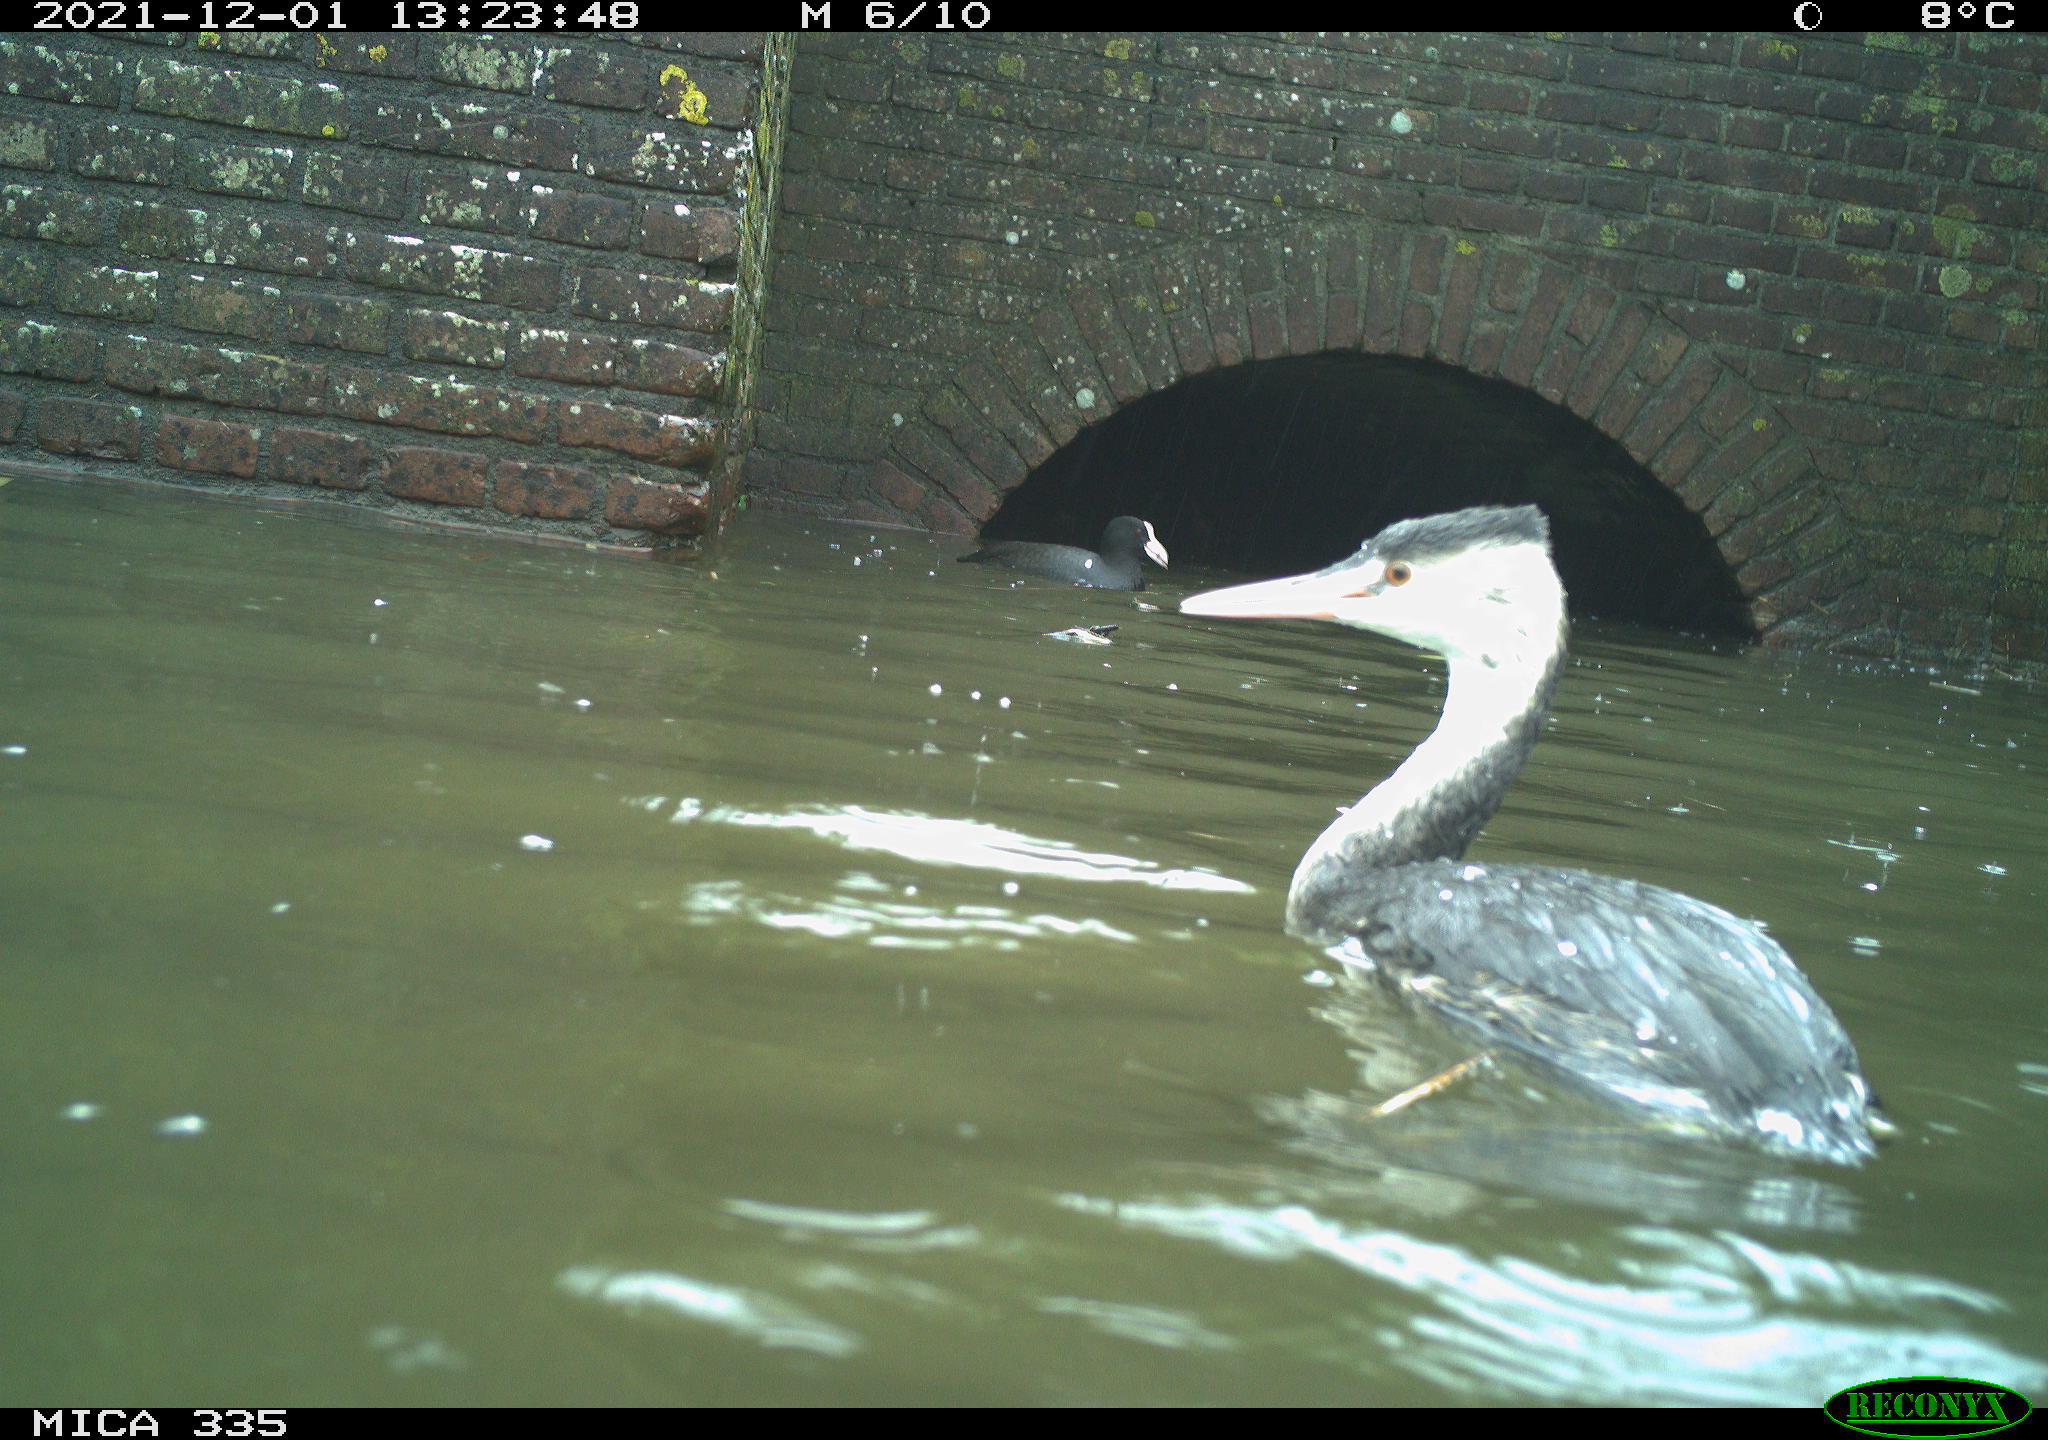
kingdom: Animalia
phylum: Chordata
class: Aves
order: Gruiformes
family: Rallidae
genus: Fulica
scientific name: Fulica atra
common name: Eurasian coot
